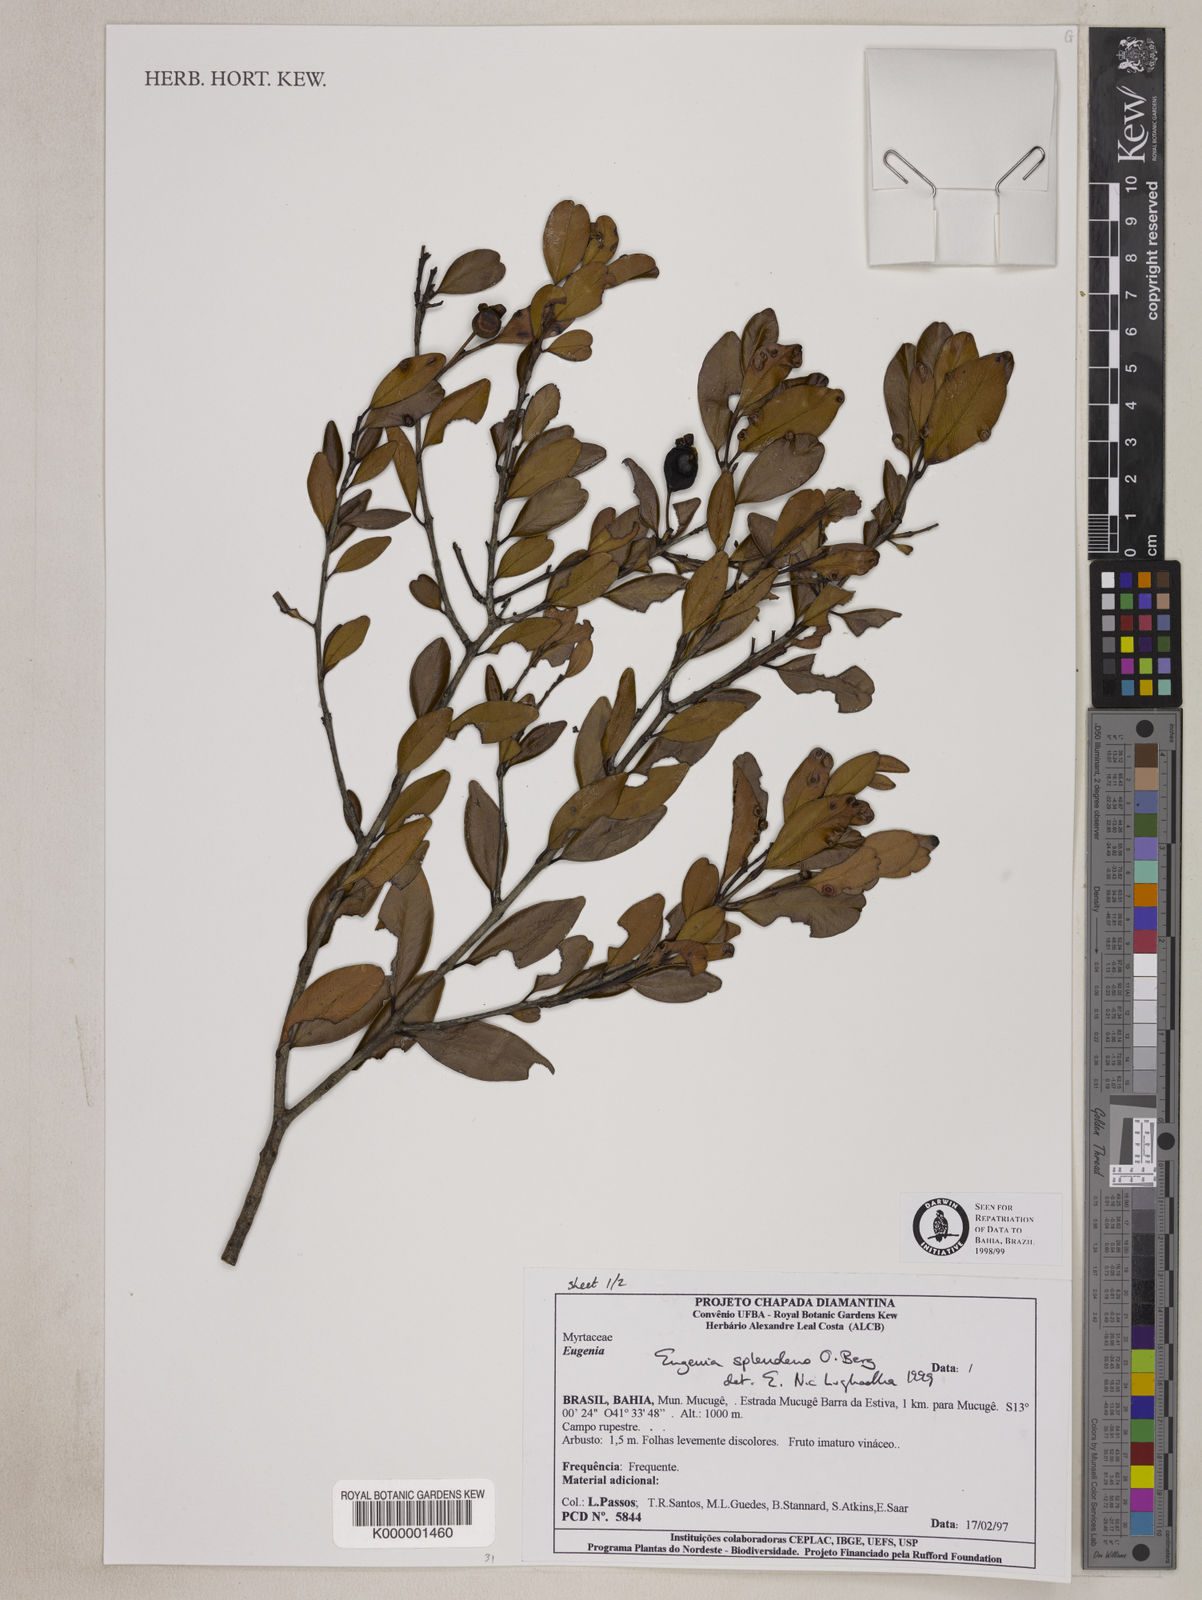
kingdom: Plantae
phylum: Tracheophyta
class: Magnoliopsida
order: Myrtales
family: Myrtaceae
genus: Eugenia
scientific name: Eugenia splendens
